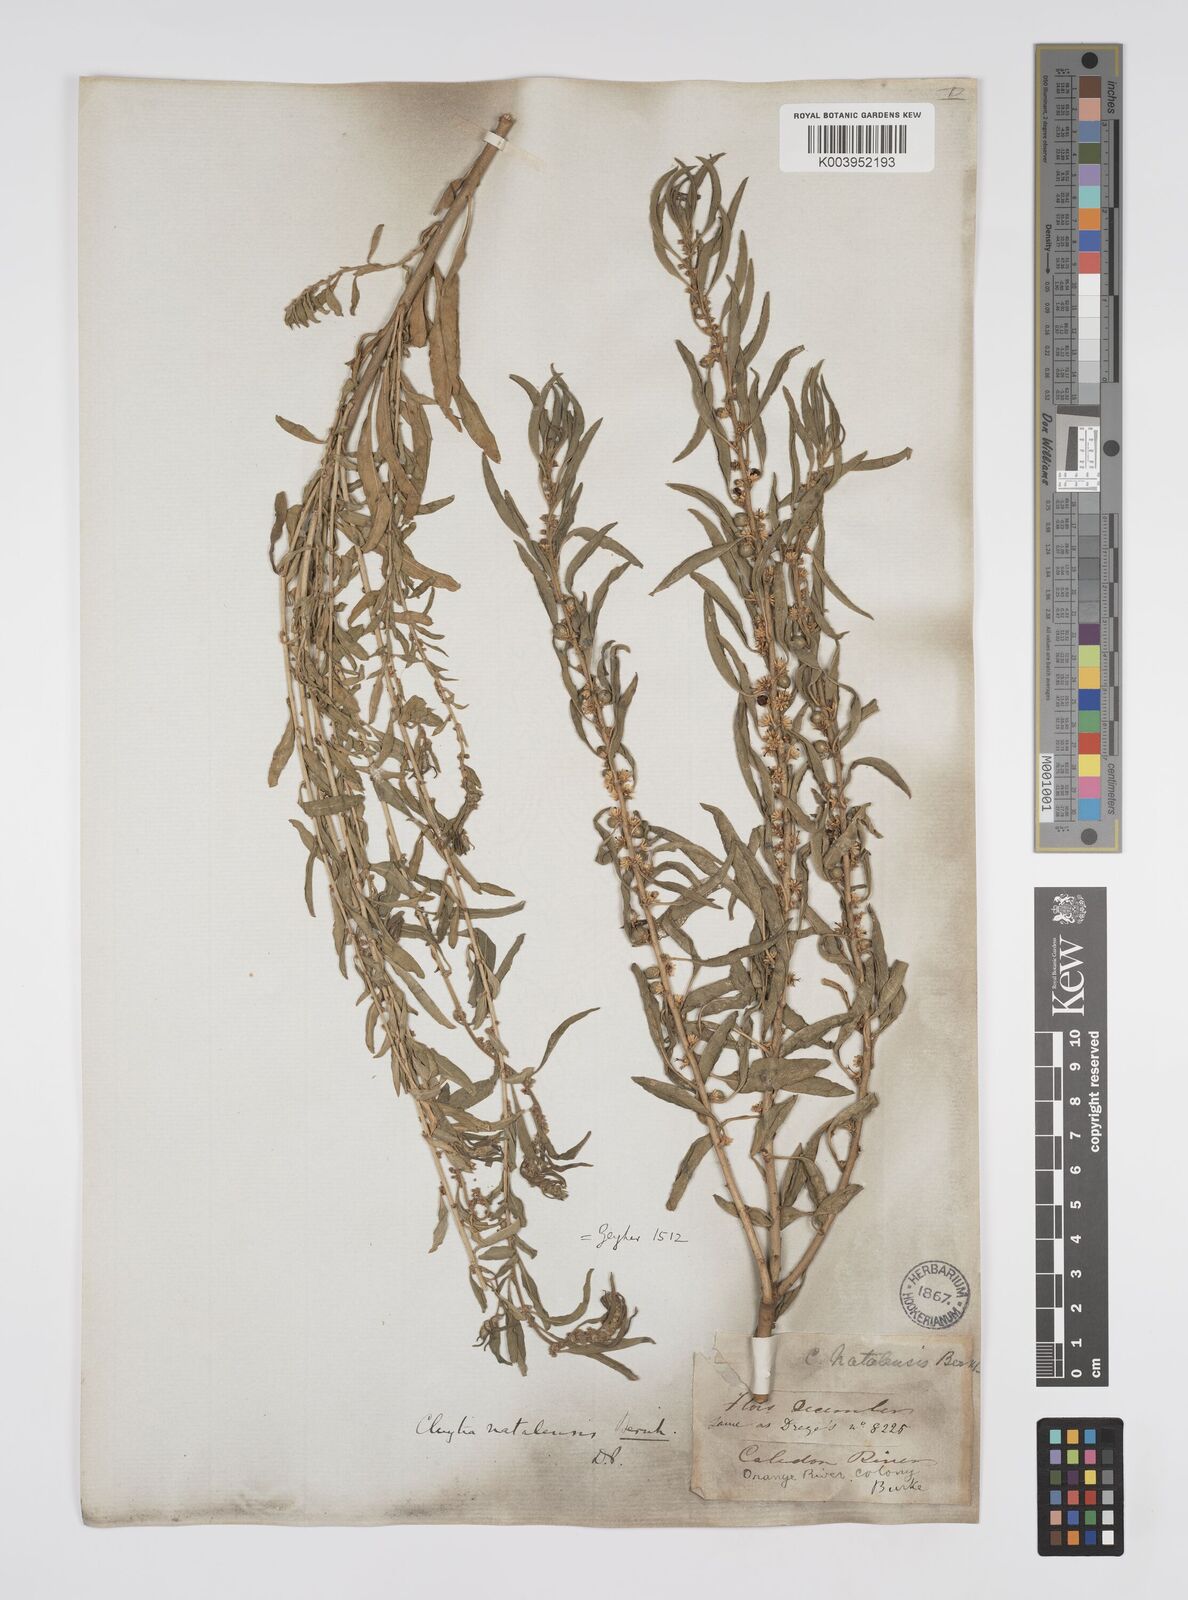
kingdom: Plantae
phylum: Tracheophyta
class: Magnoliopsida
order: Malpighiales
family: Peraceae
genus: Clutia
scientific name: Clutia natalensis
